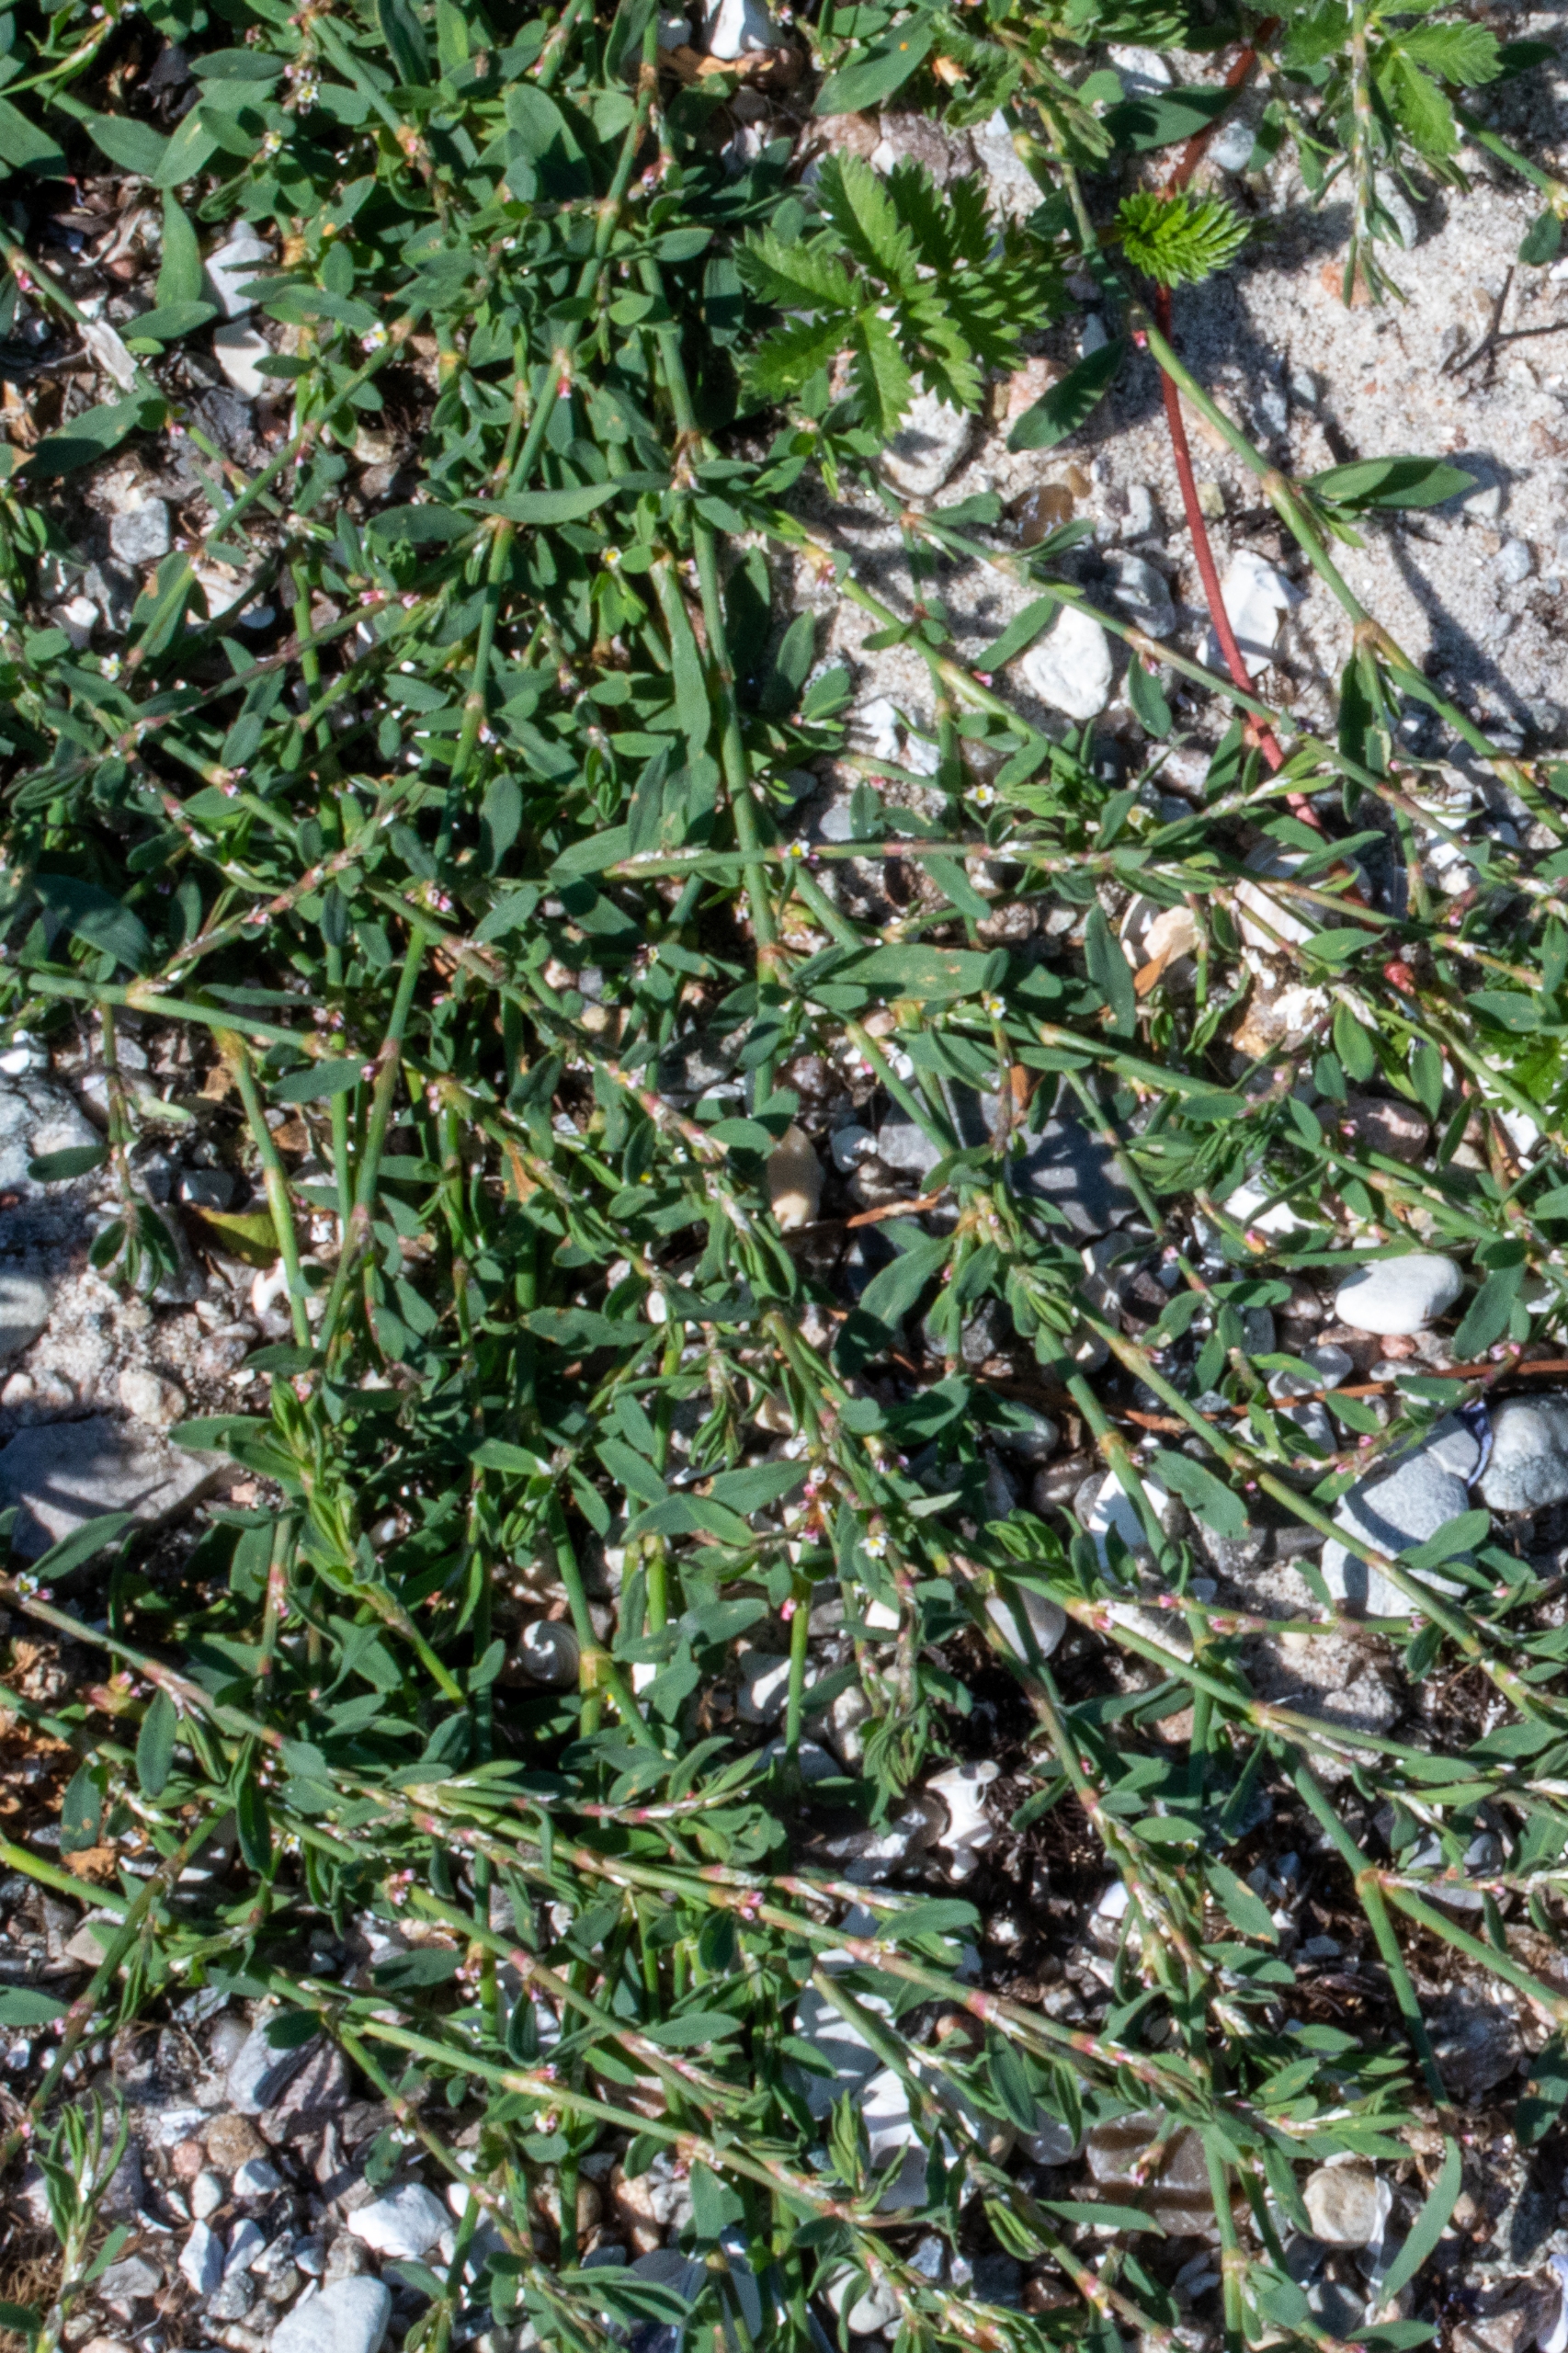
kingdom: Plantae
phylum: Tracheophyta
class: Magnoliopsida
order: Caryophyllales
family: Polygonaceae
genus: Polygonum
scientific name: Polygonum arenastrum
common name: Liggende vej-pileurt
